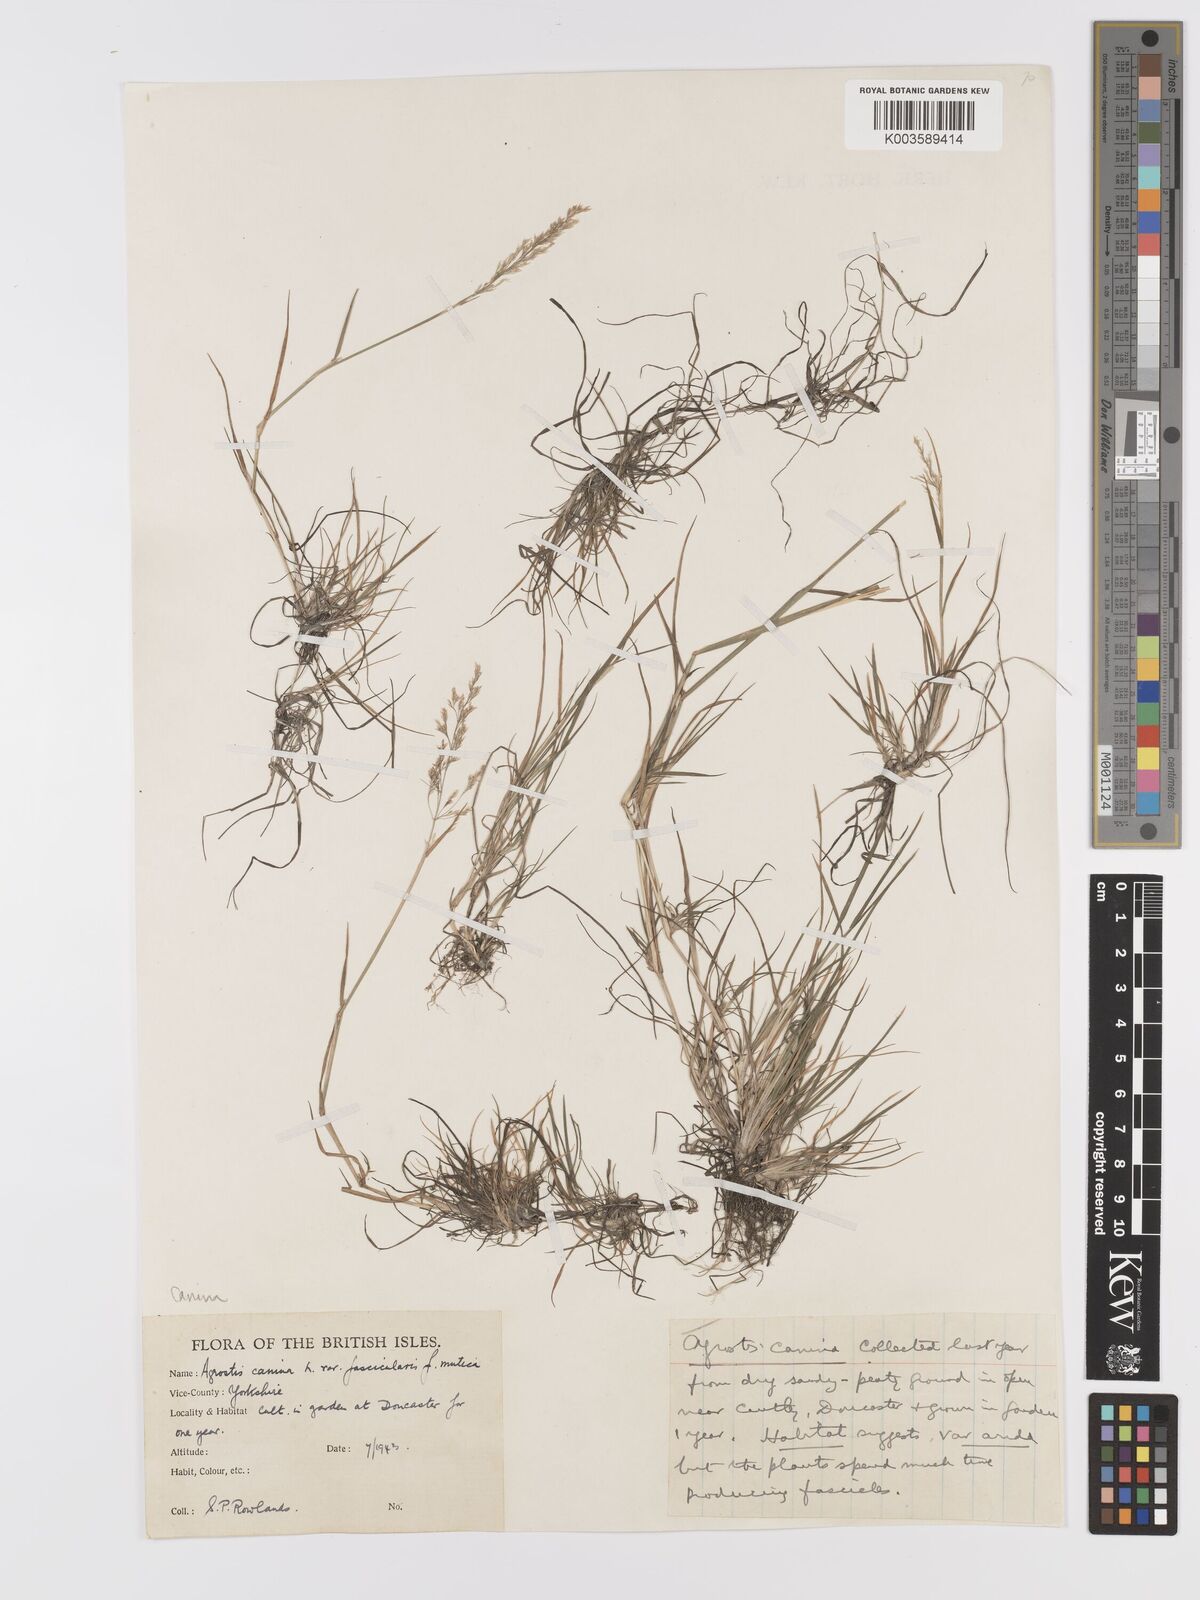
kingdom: Plantae
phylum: Tracheophyta
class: Liliopsida
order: Poales
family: Poaceae
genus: Agrostis
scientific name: Agrostis canina
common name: Velvet bent
